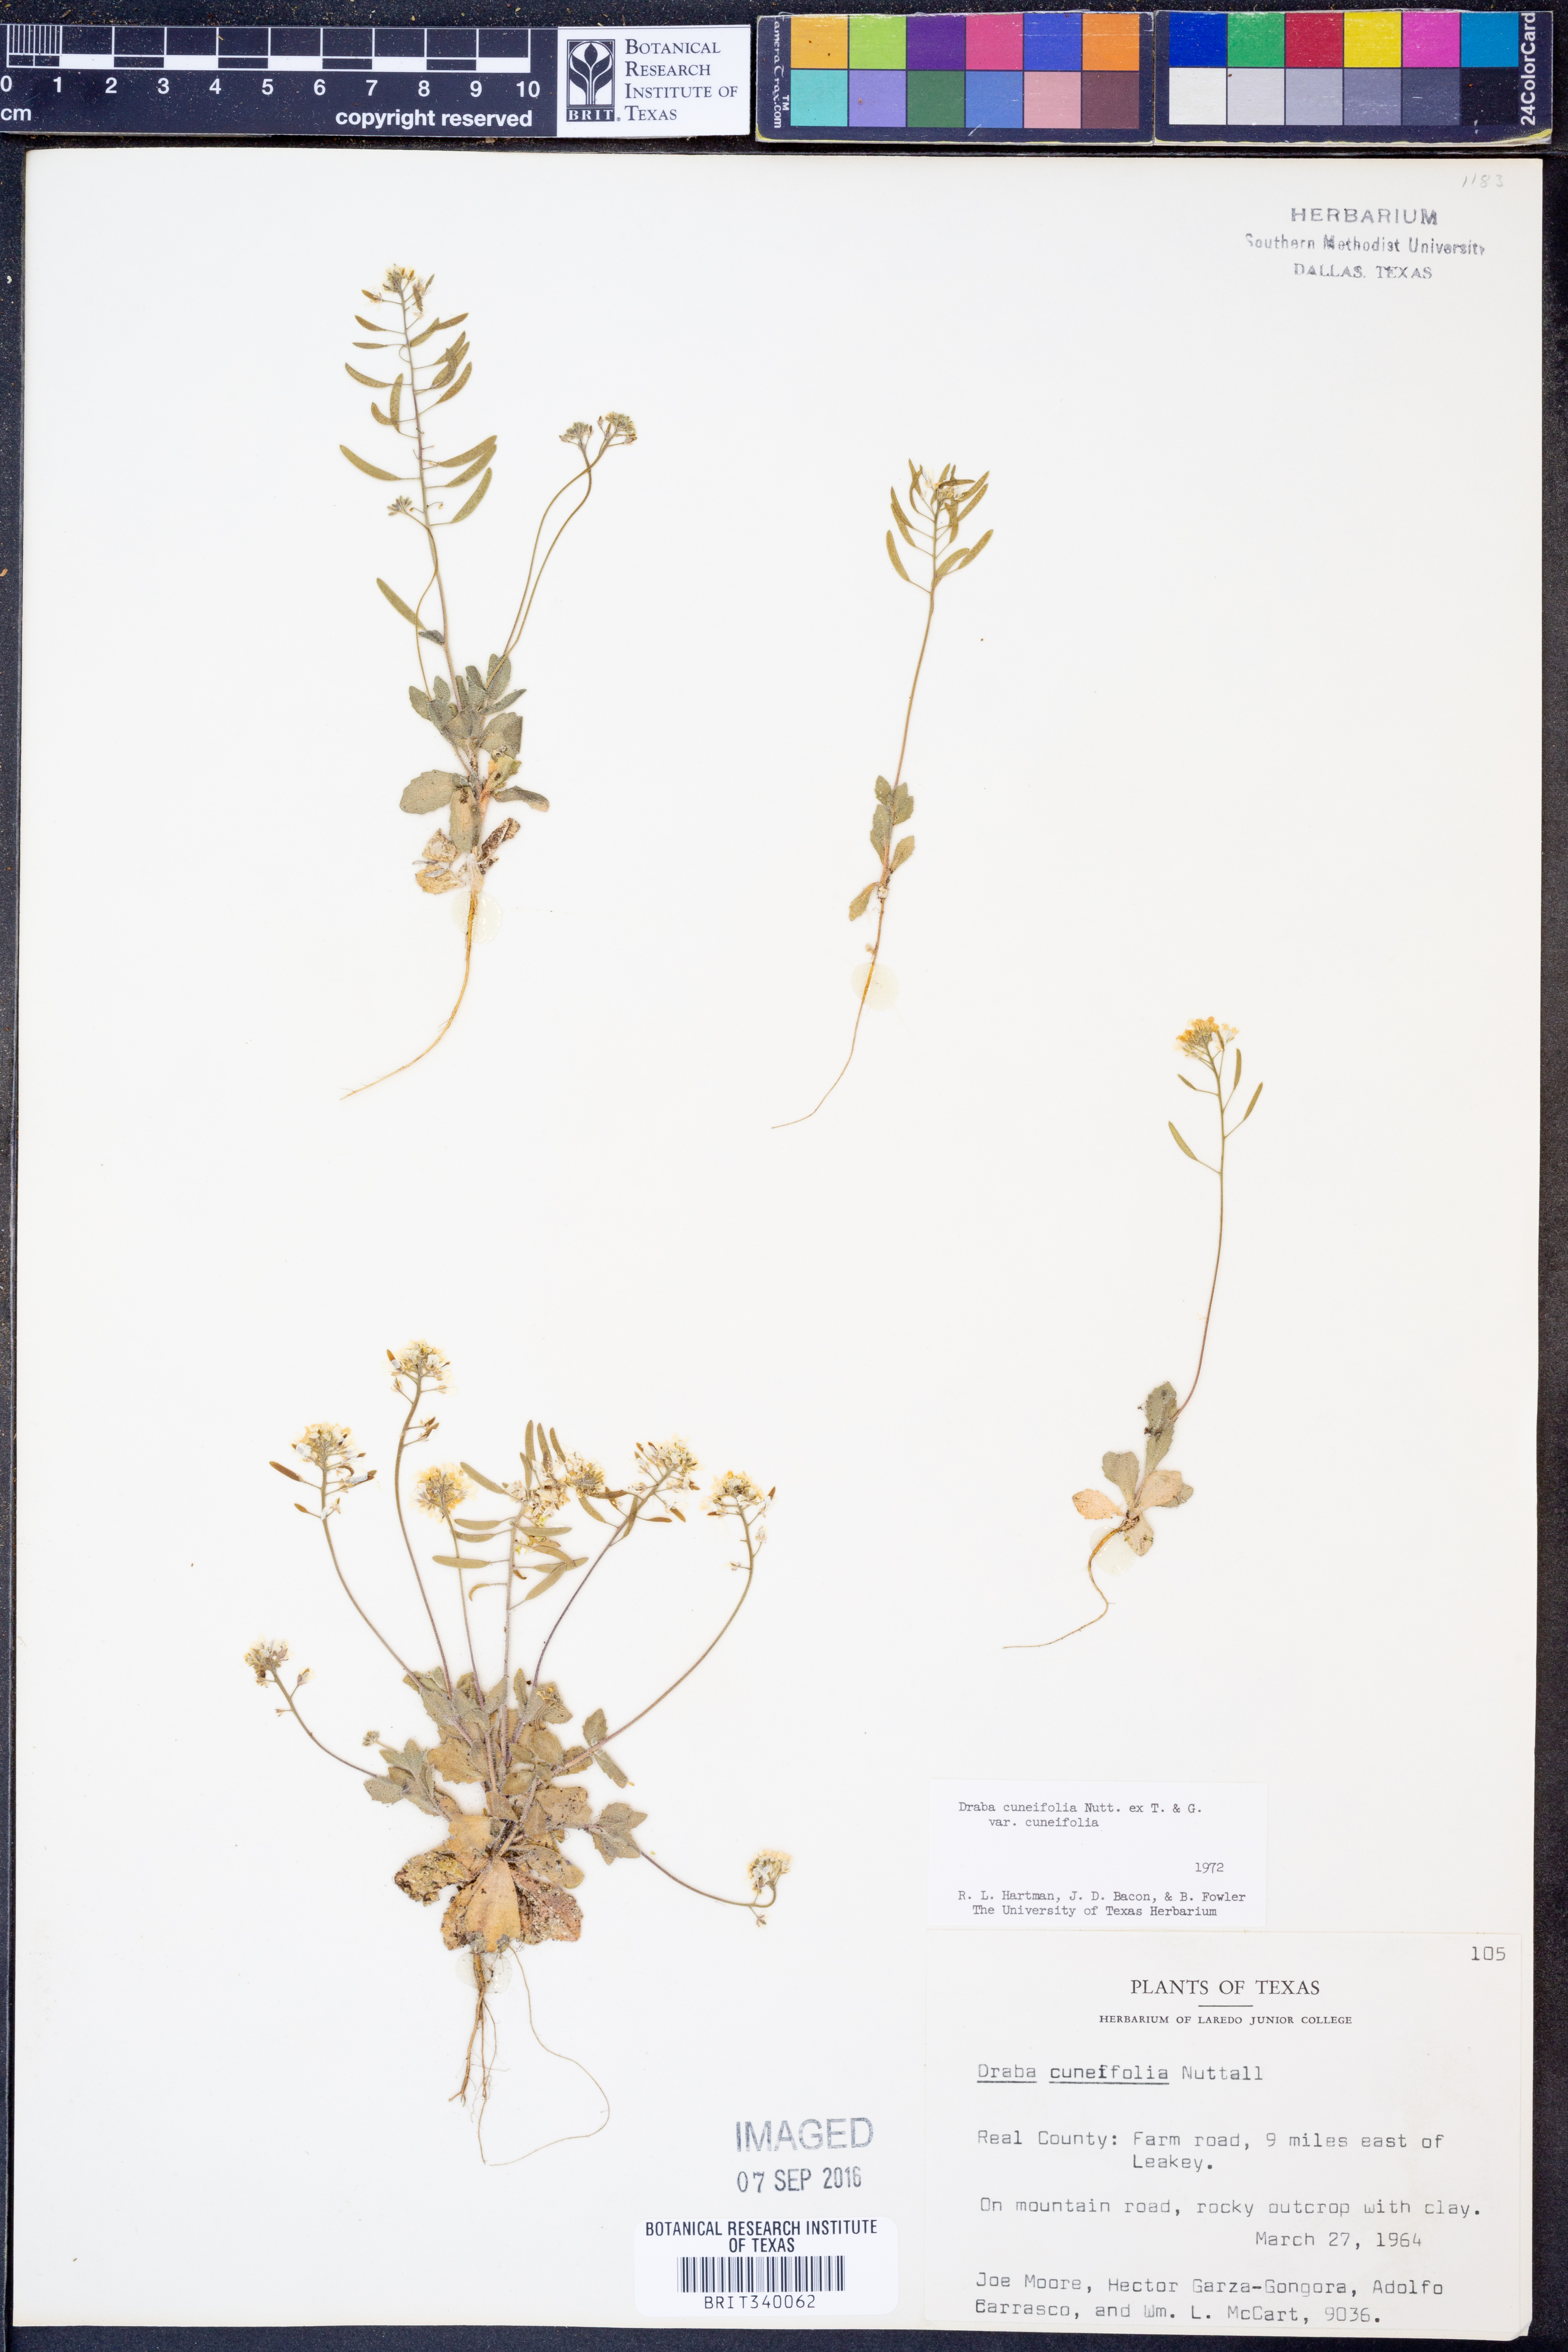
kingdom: Plantae
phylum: Tracheophyta
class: Magnoliopsida
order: Brassicales
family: Brassicaceae
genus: Tomostima
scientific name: Tomostima cuneifolia
